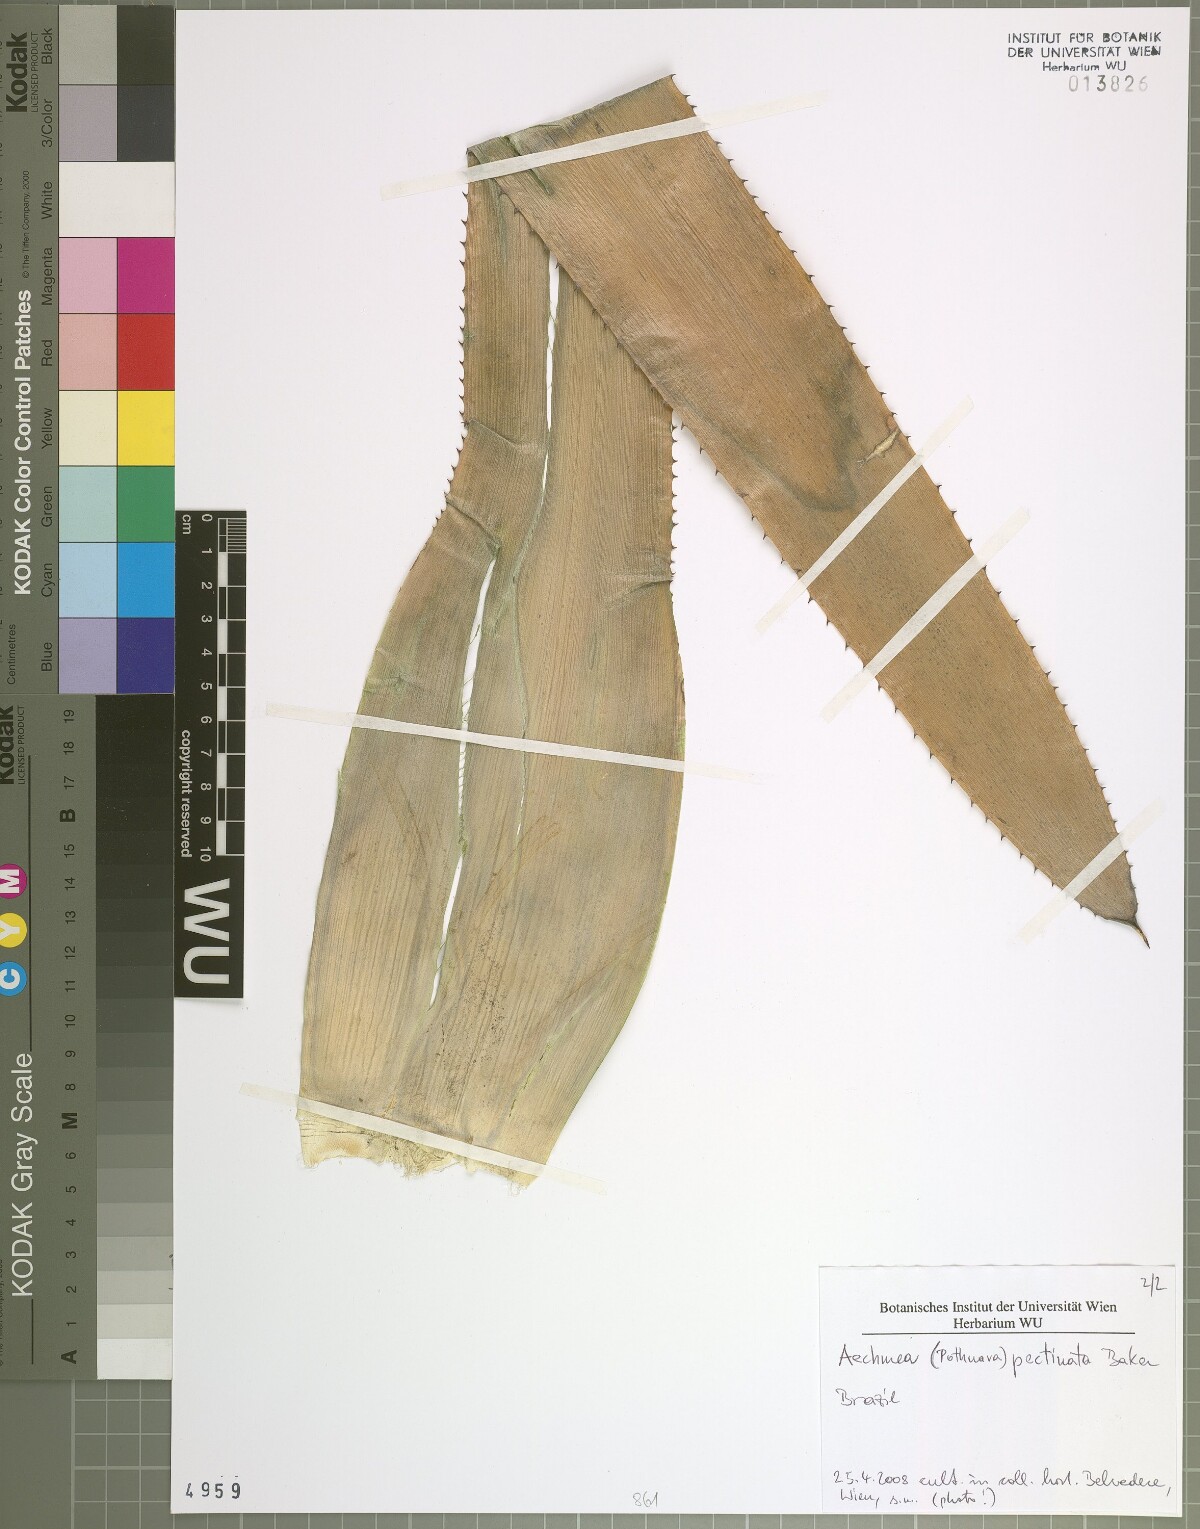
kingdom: Plantae
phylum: Tracheophyta
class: Liliopsida
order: Poales
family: Bromeliaceae
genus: Aechmea
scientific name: Aechmea pectinata
